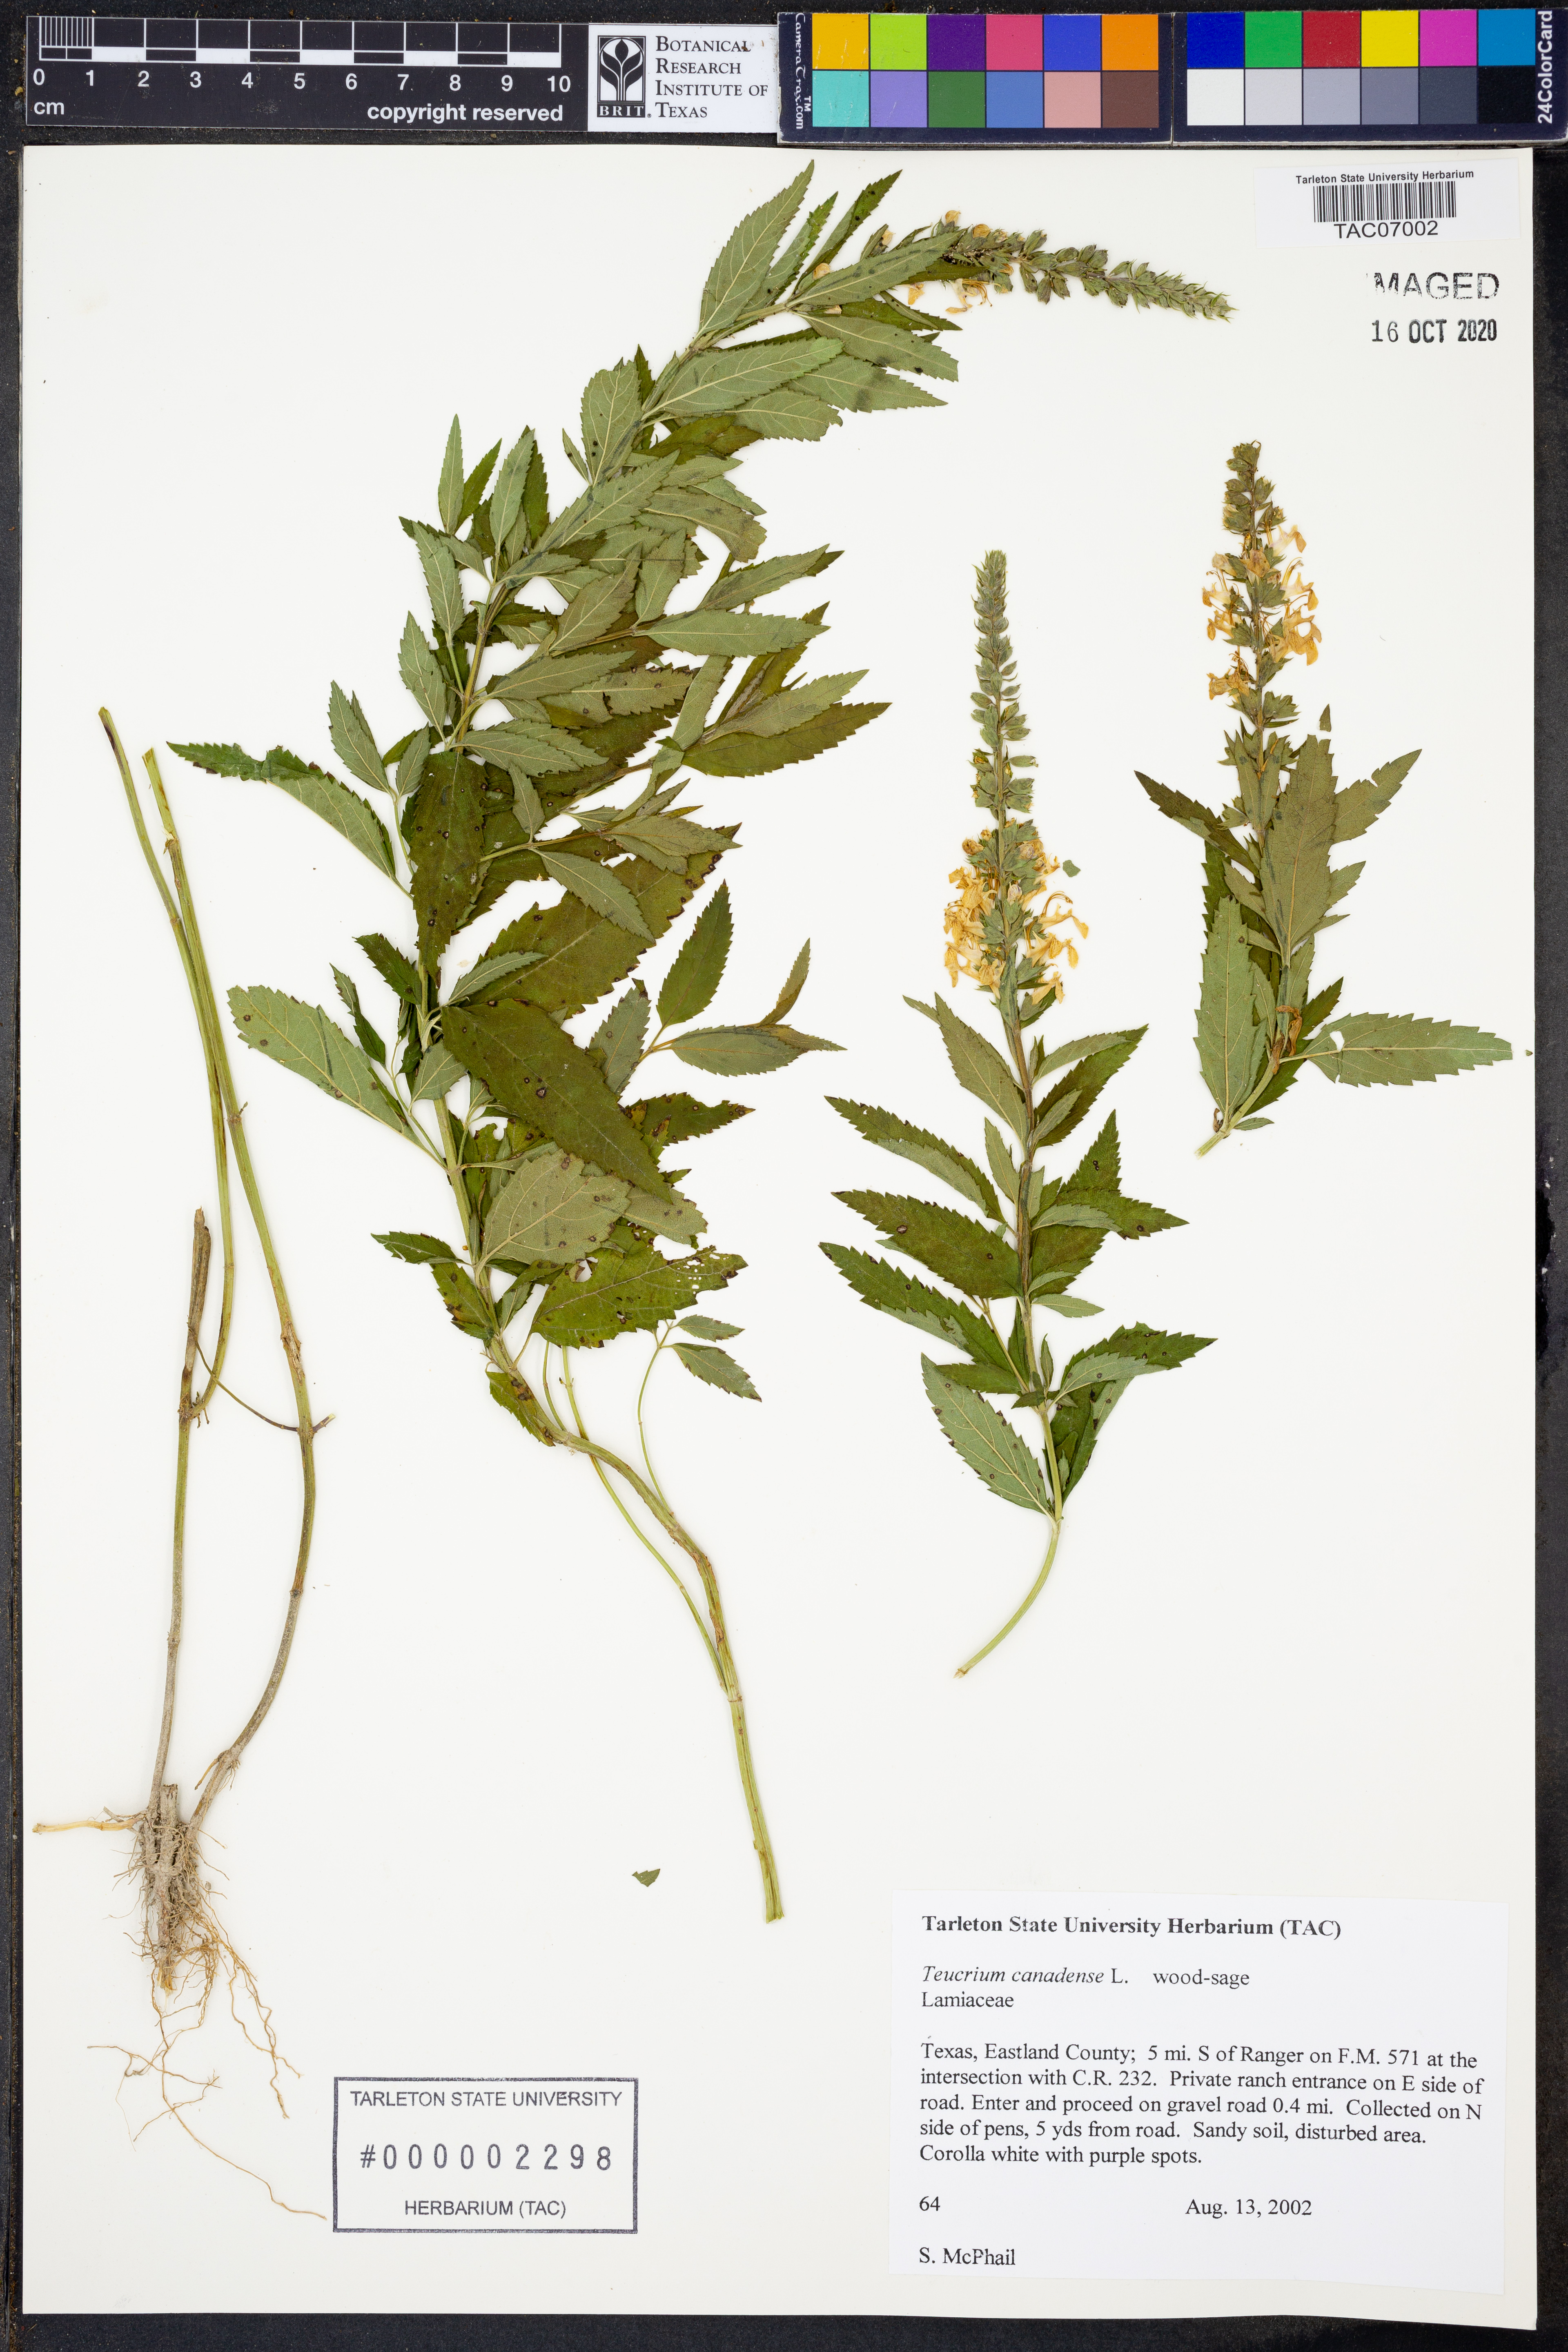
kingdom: Plantae
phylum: Tracheophyta
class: Magnoliopsida
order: Lamiales
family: Lamiaceae
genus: Teucrium
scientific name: Teucrium canadense
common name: American germander
